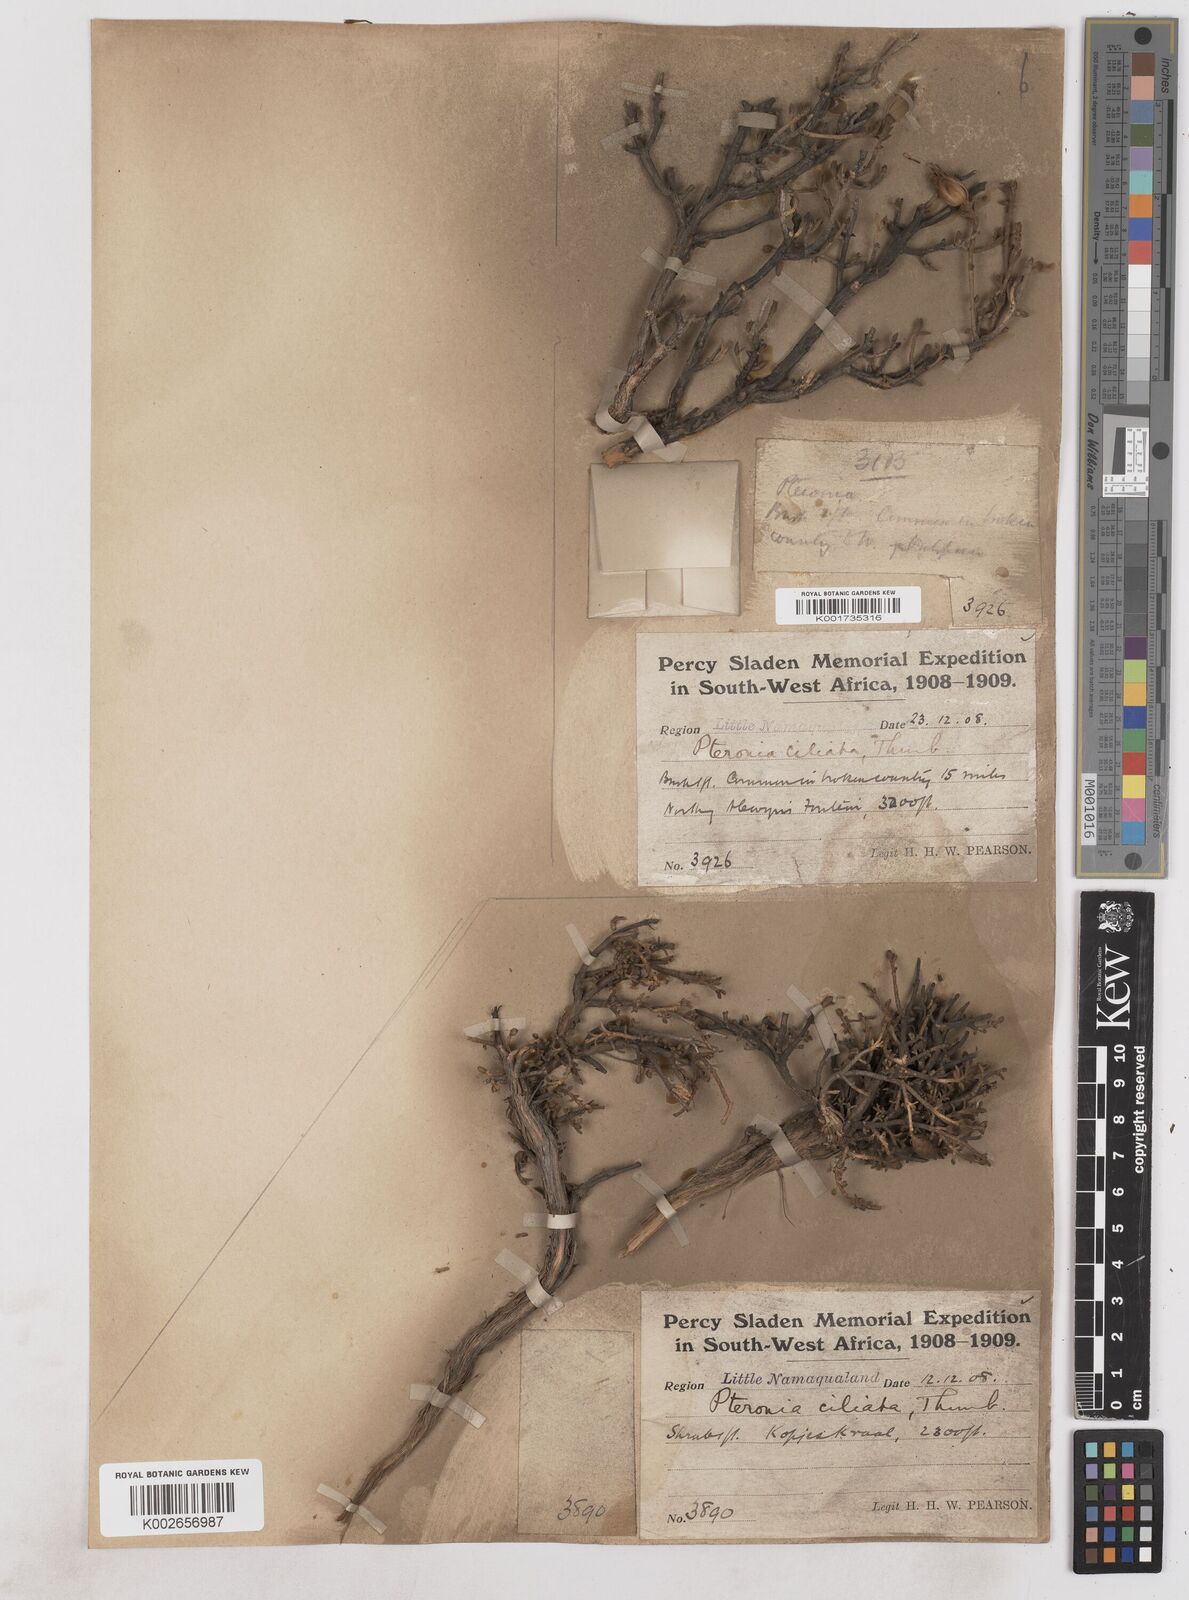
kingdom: Plantae
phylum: Tracheophyta
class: Magnoliopsida
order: Asterales
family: Asteraceae
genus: Pteronia
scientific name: Pteronia ciliata
